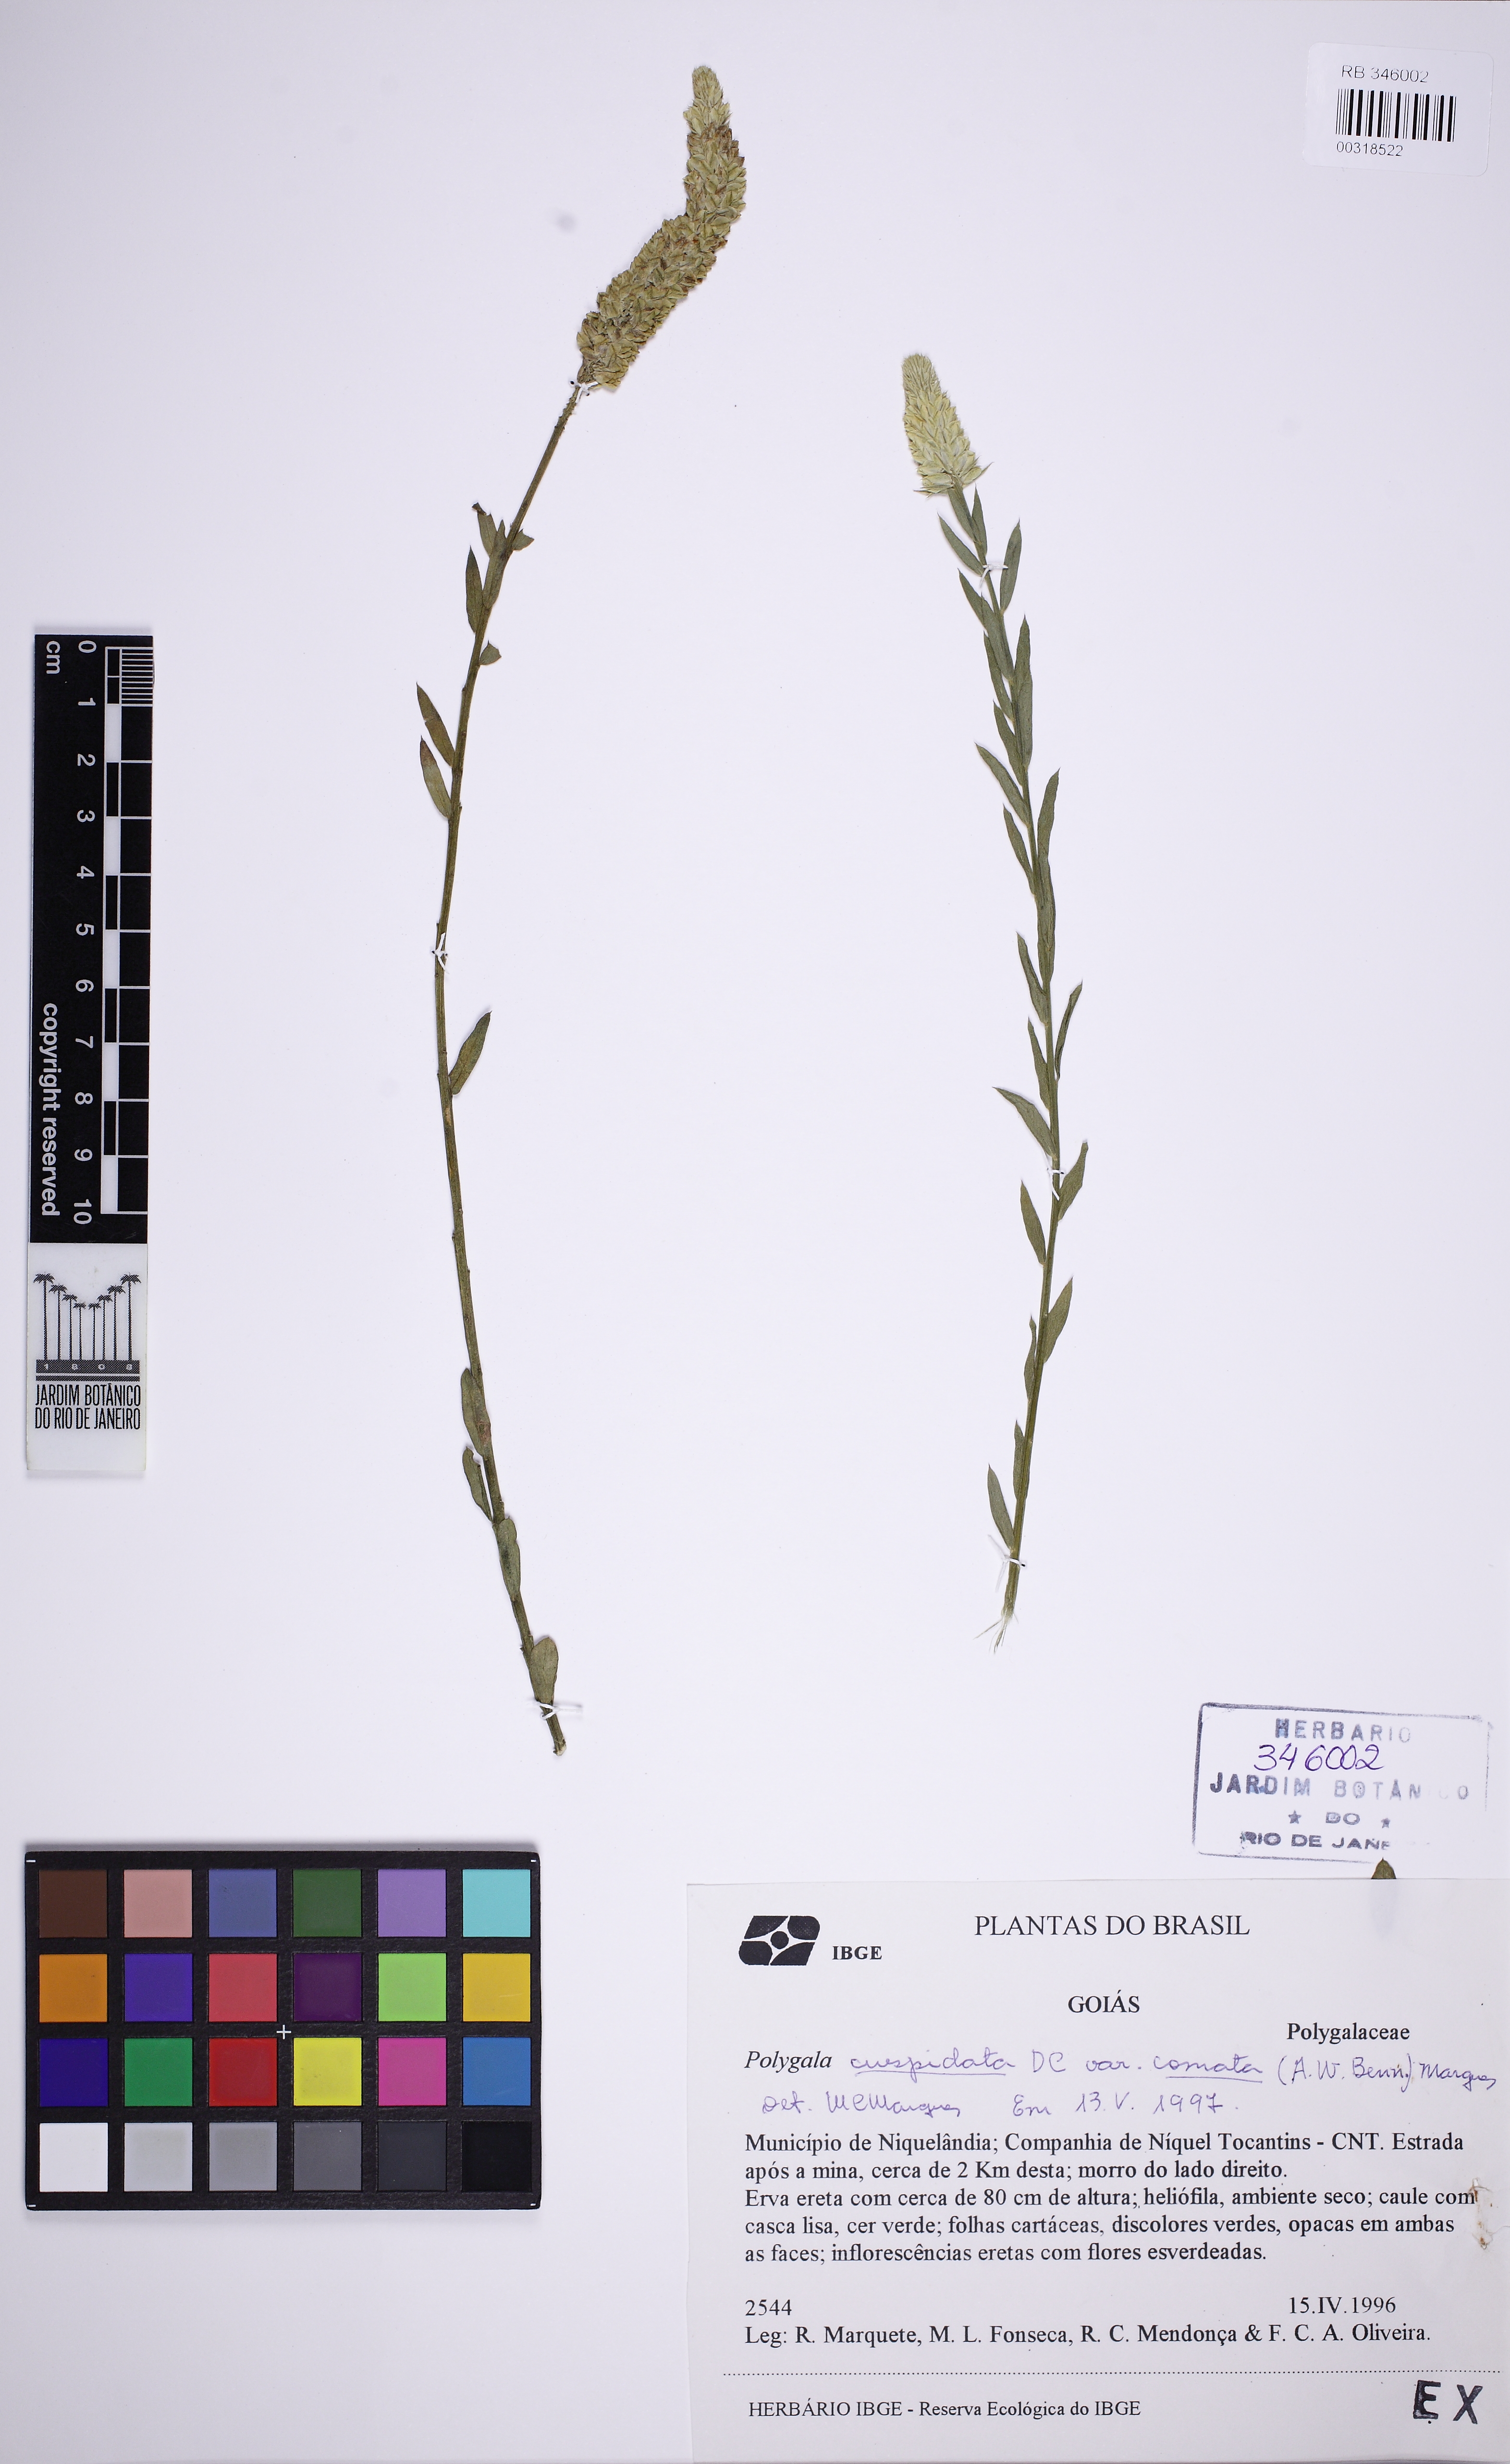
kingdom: Plantae
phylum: Tracheophyta
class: Magnoliopsida
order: Fabales
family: Polygalaceae
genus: Polygala
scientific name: Polygala cuspidata
